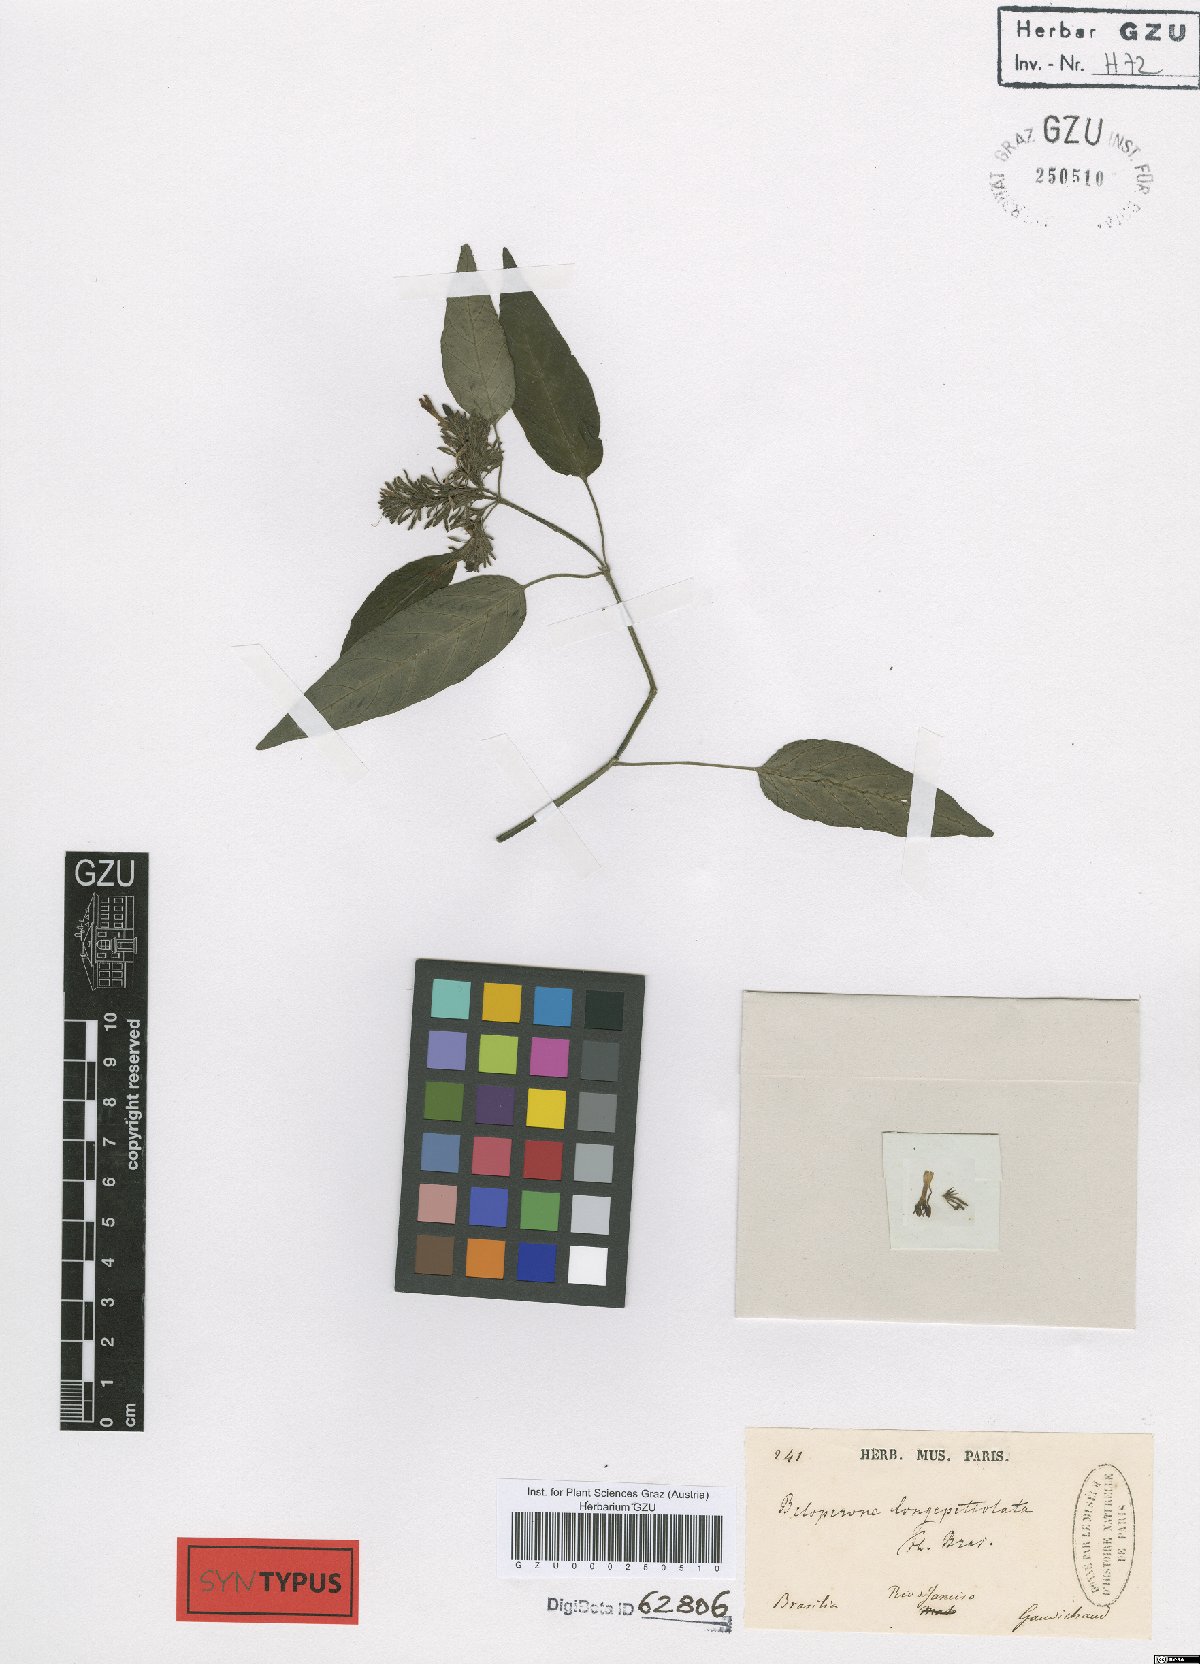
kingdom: Plantae
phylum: Tracheophyta
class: Magnoliopsida
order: Lamiales
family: Acanthaceae
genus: Justicia
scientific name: Justicia Beloperone longipetiolata
